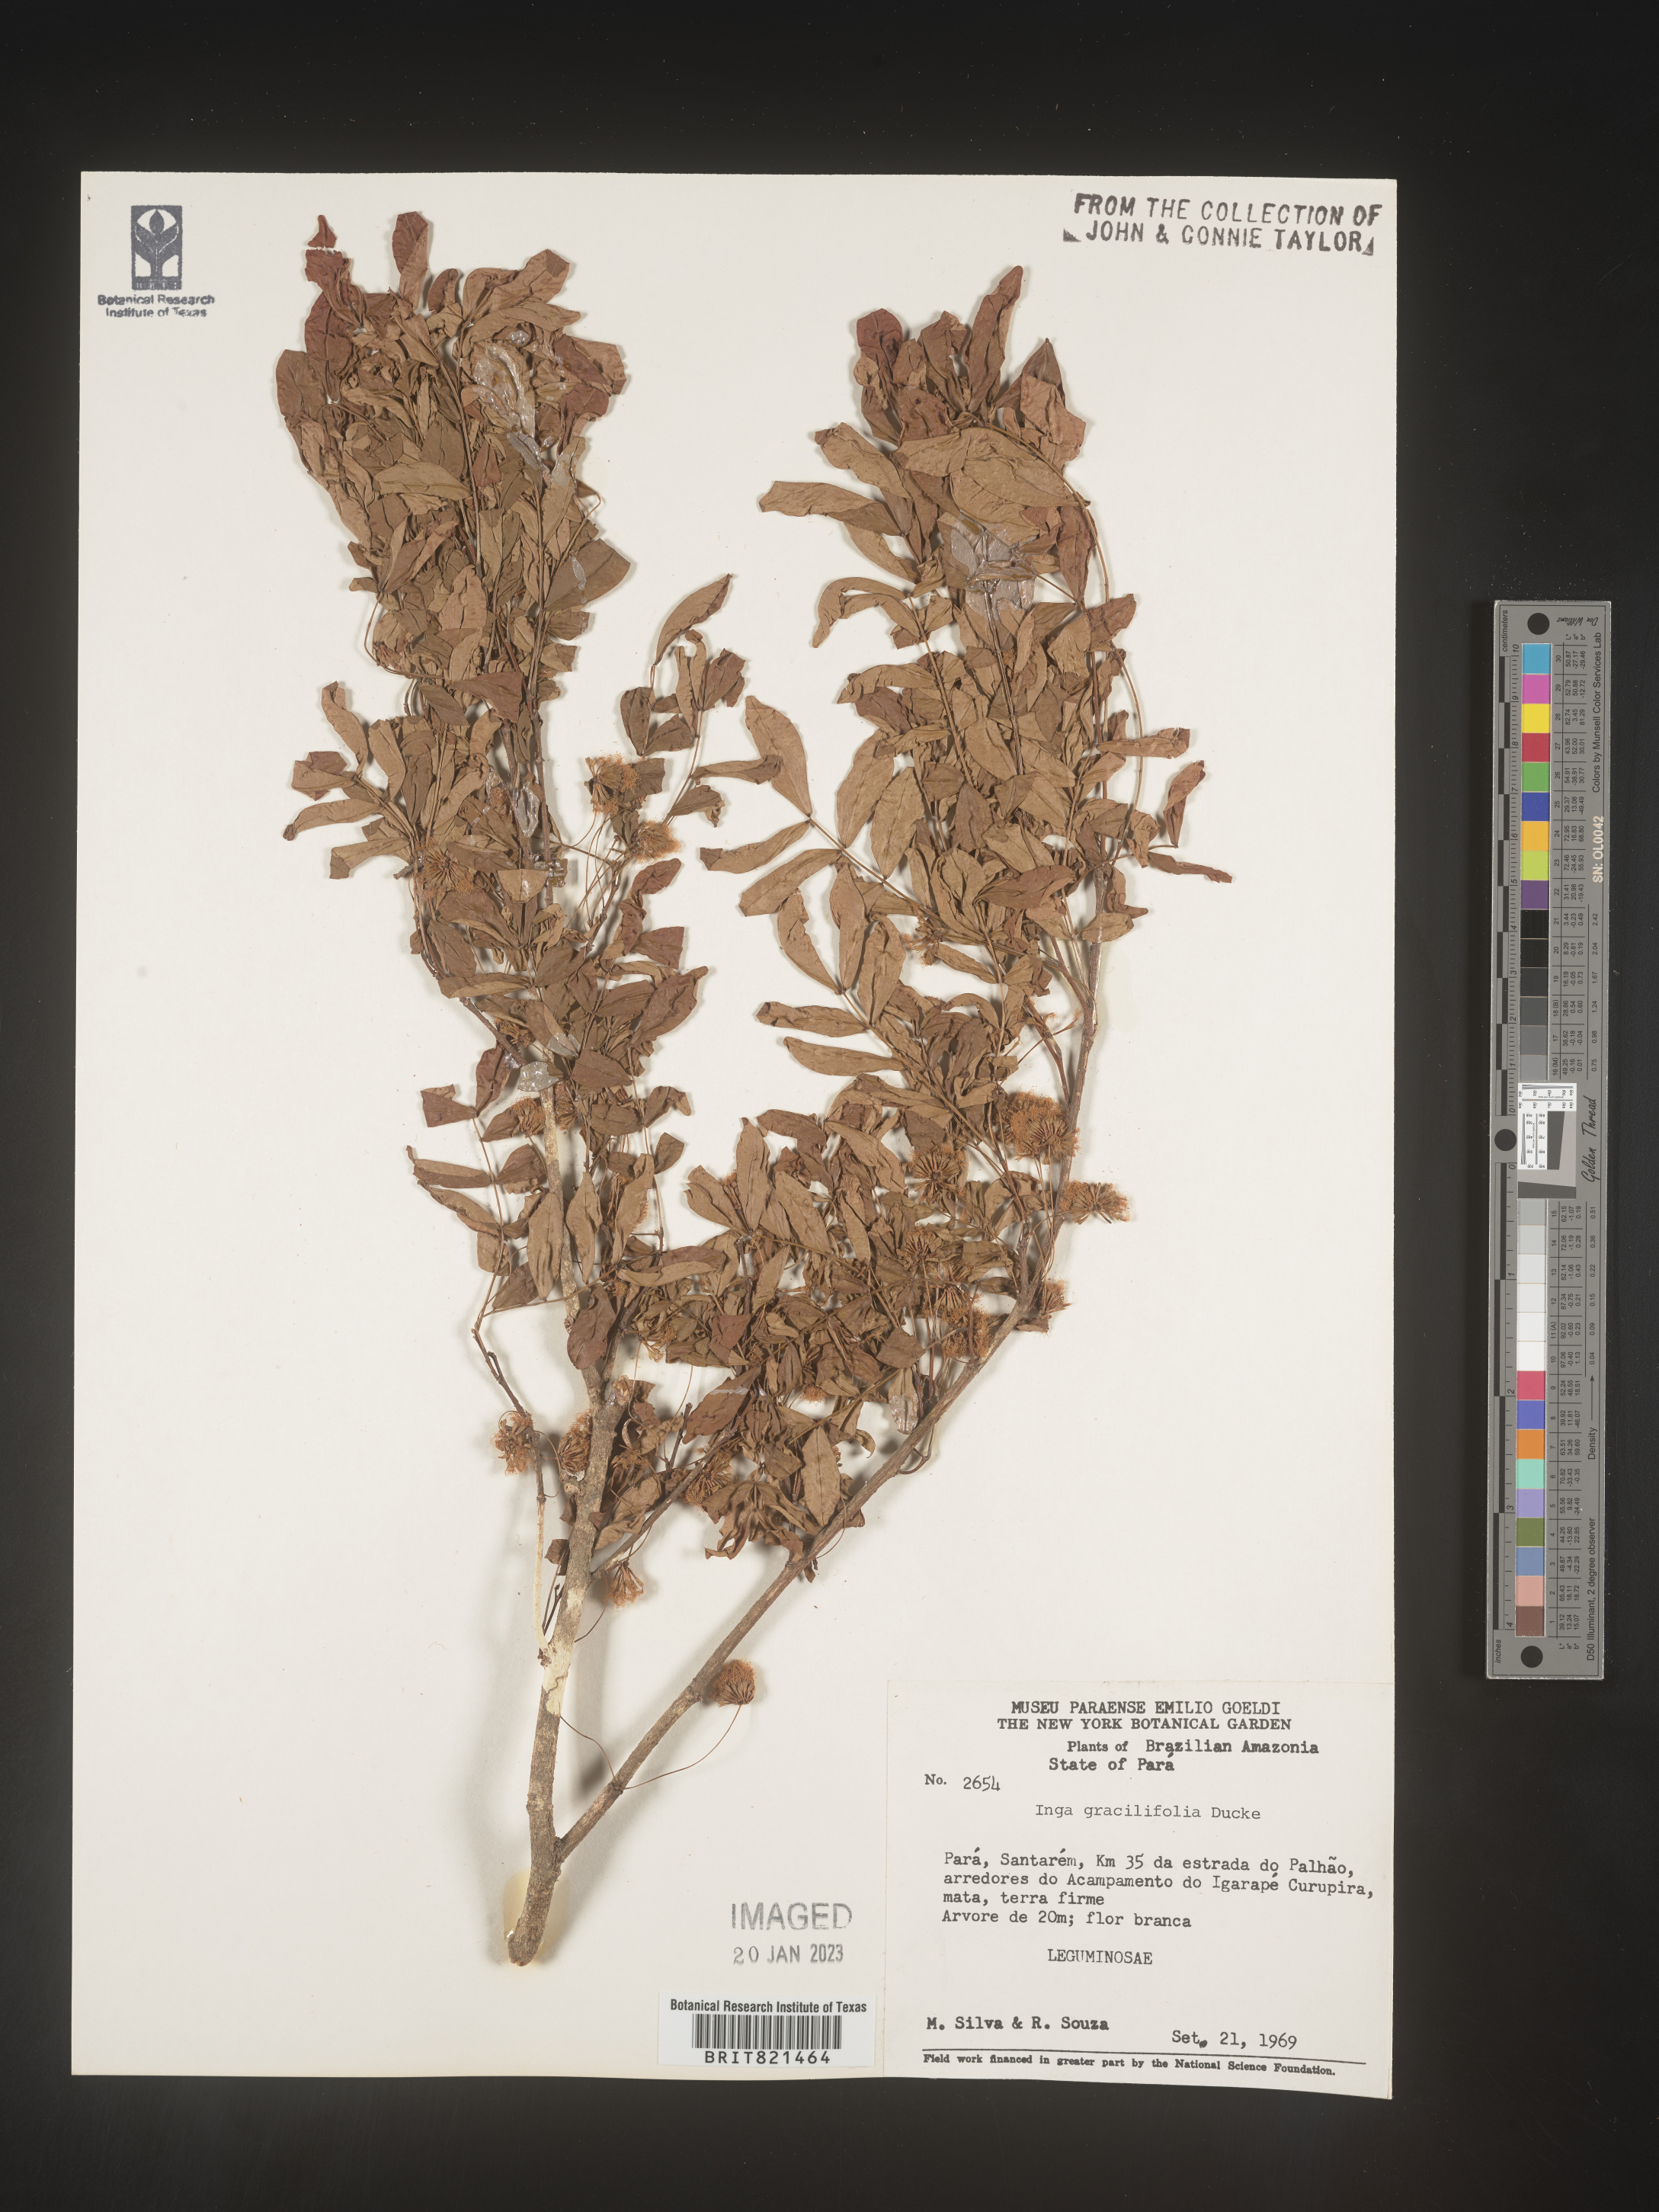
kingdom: Plantae
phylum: Tracheophyta
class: Magnoliopsida
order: Fabales
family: Fabaceae
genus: Inga
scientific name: Inga
